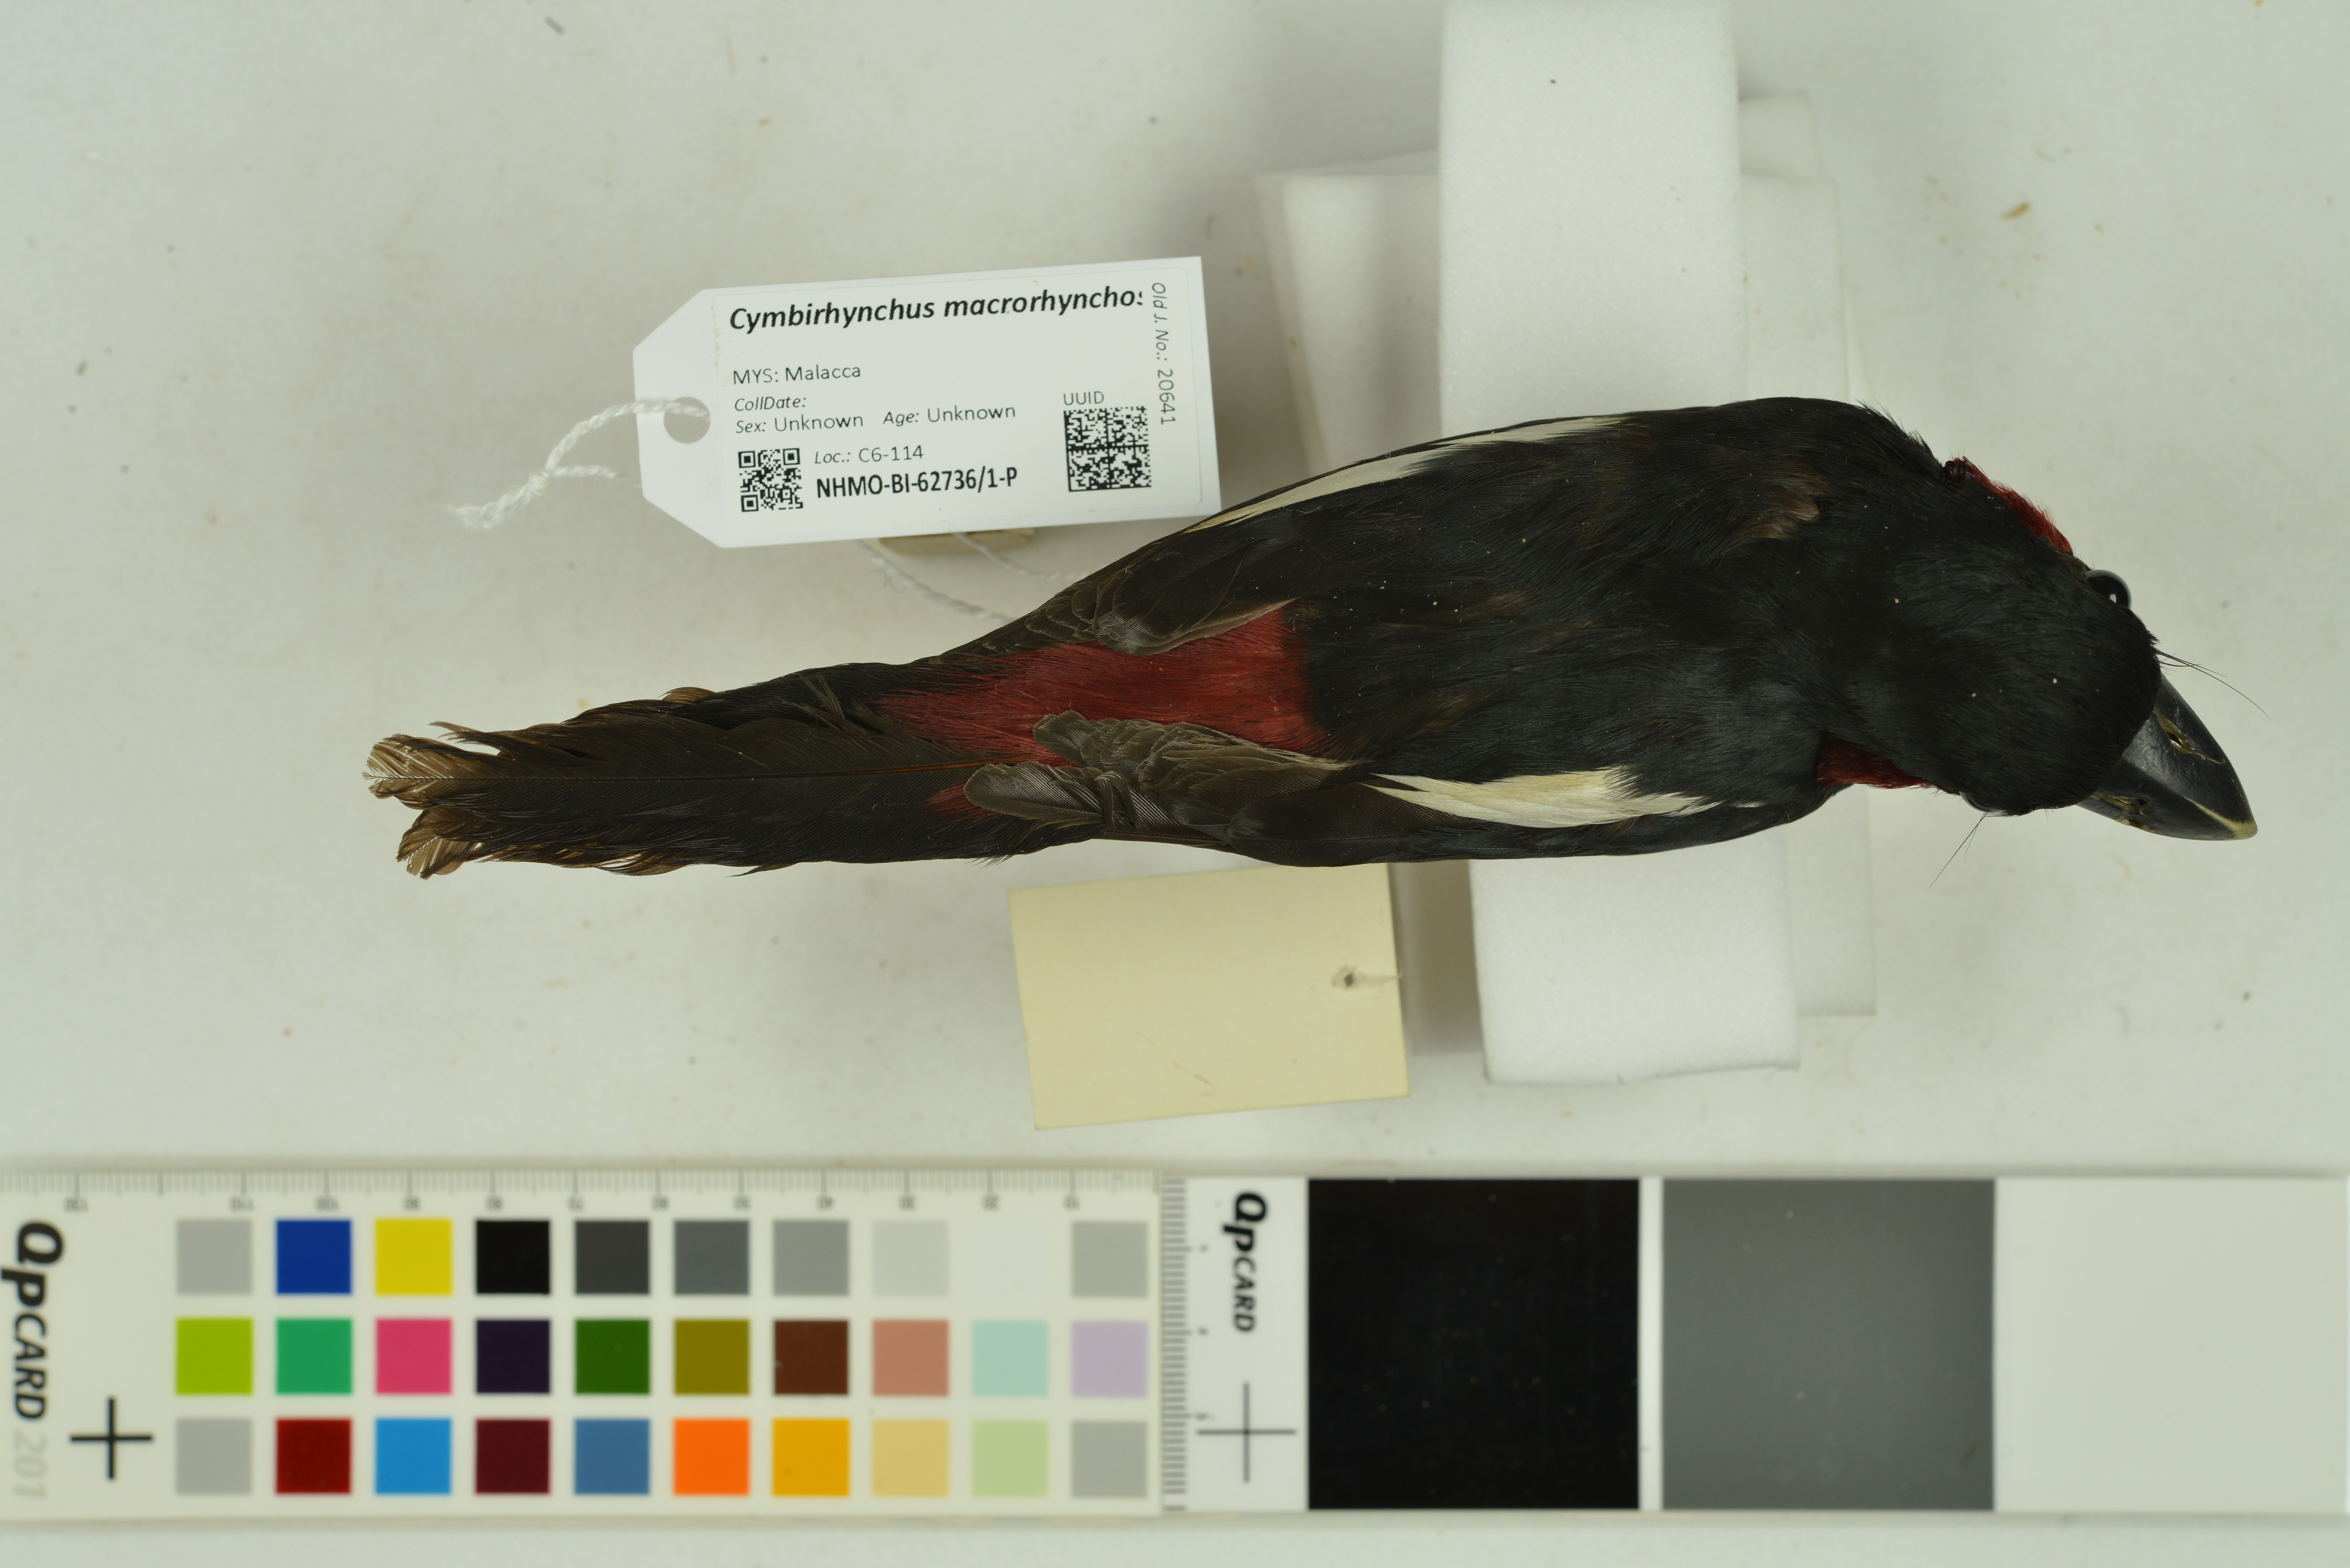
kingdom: Animalia
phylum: Chordata
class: Aves
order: Passeriformes
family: Eurylaimidae
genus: Cymbirhynchus
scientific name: Cymbirhynchus macrorhynchos
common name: Black-and-red broadbill
